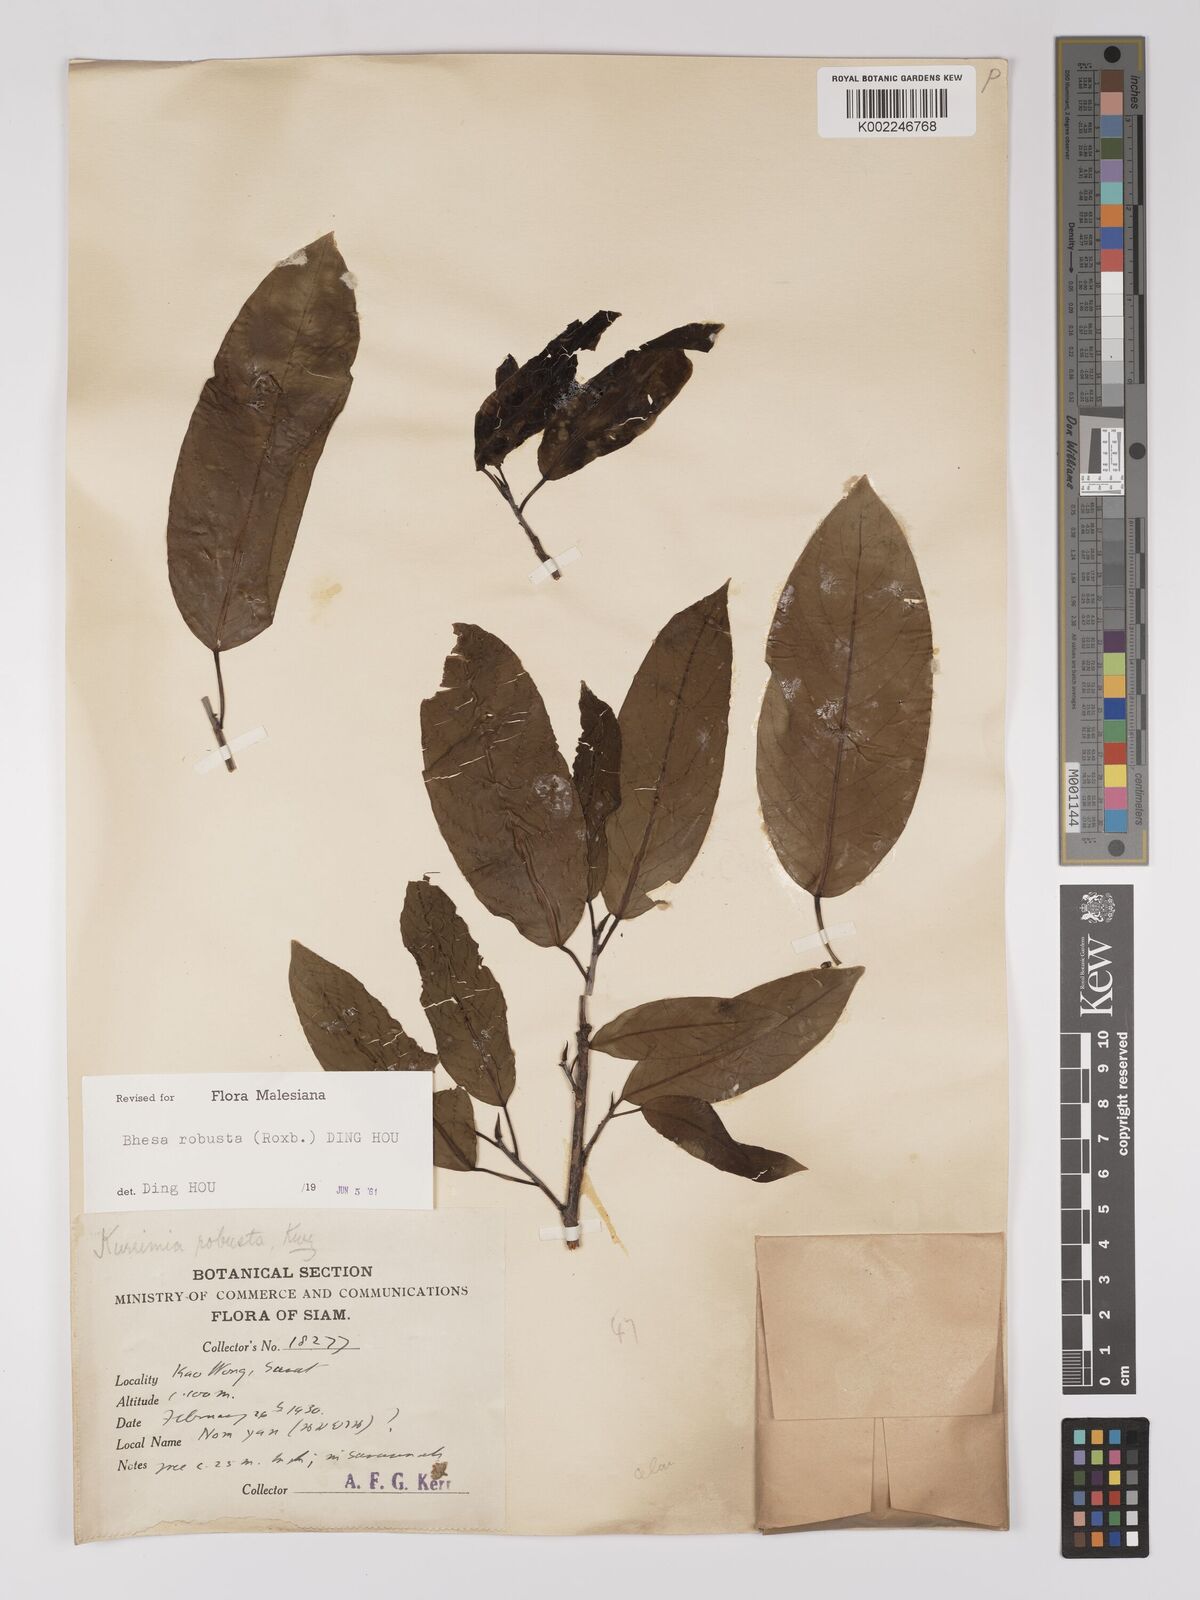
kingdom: Plantae
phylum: Tracheophyta
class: Magnoliopsida
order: Malpighiales
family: Centroplacaceae
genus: Bhesa
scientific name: Bhesa robusta
